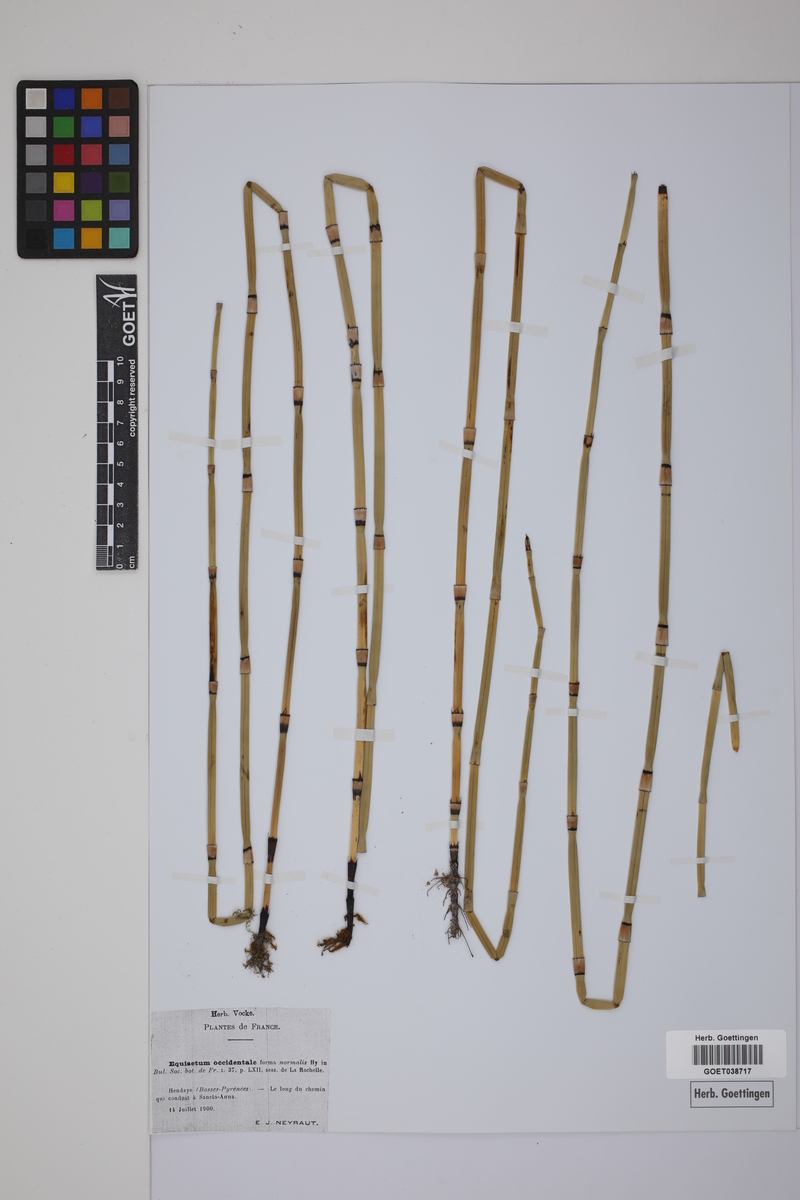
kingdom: Plantae
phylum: Tracheophyta
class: Polypodiopsida
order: Equisetales
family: Equisetaceae
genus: Equisetum
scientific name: Equisetum moorei
